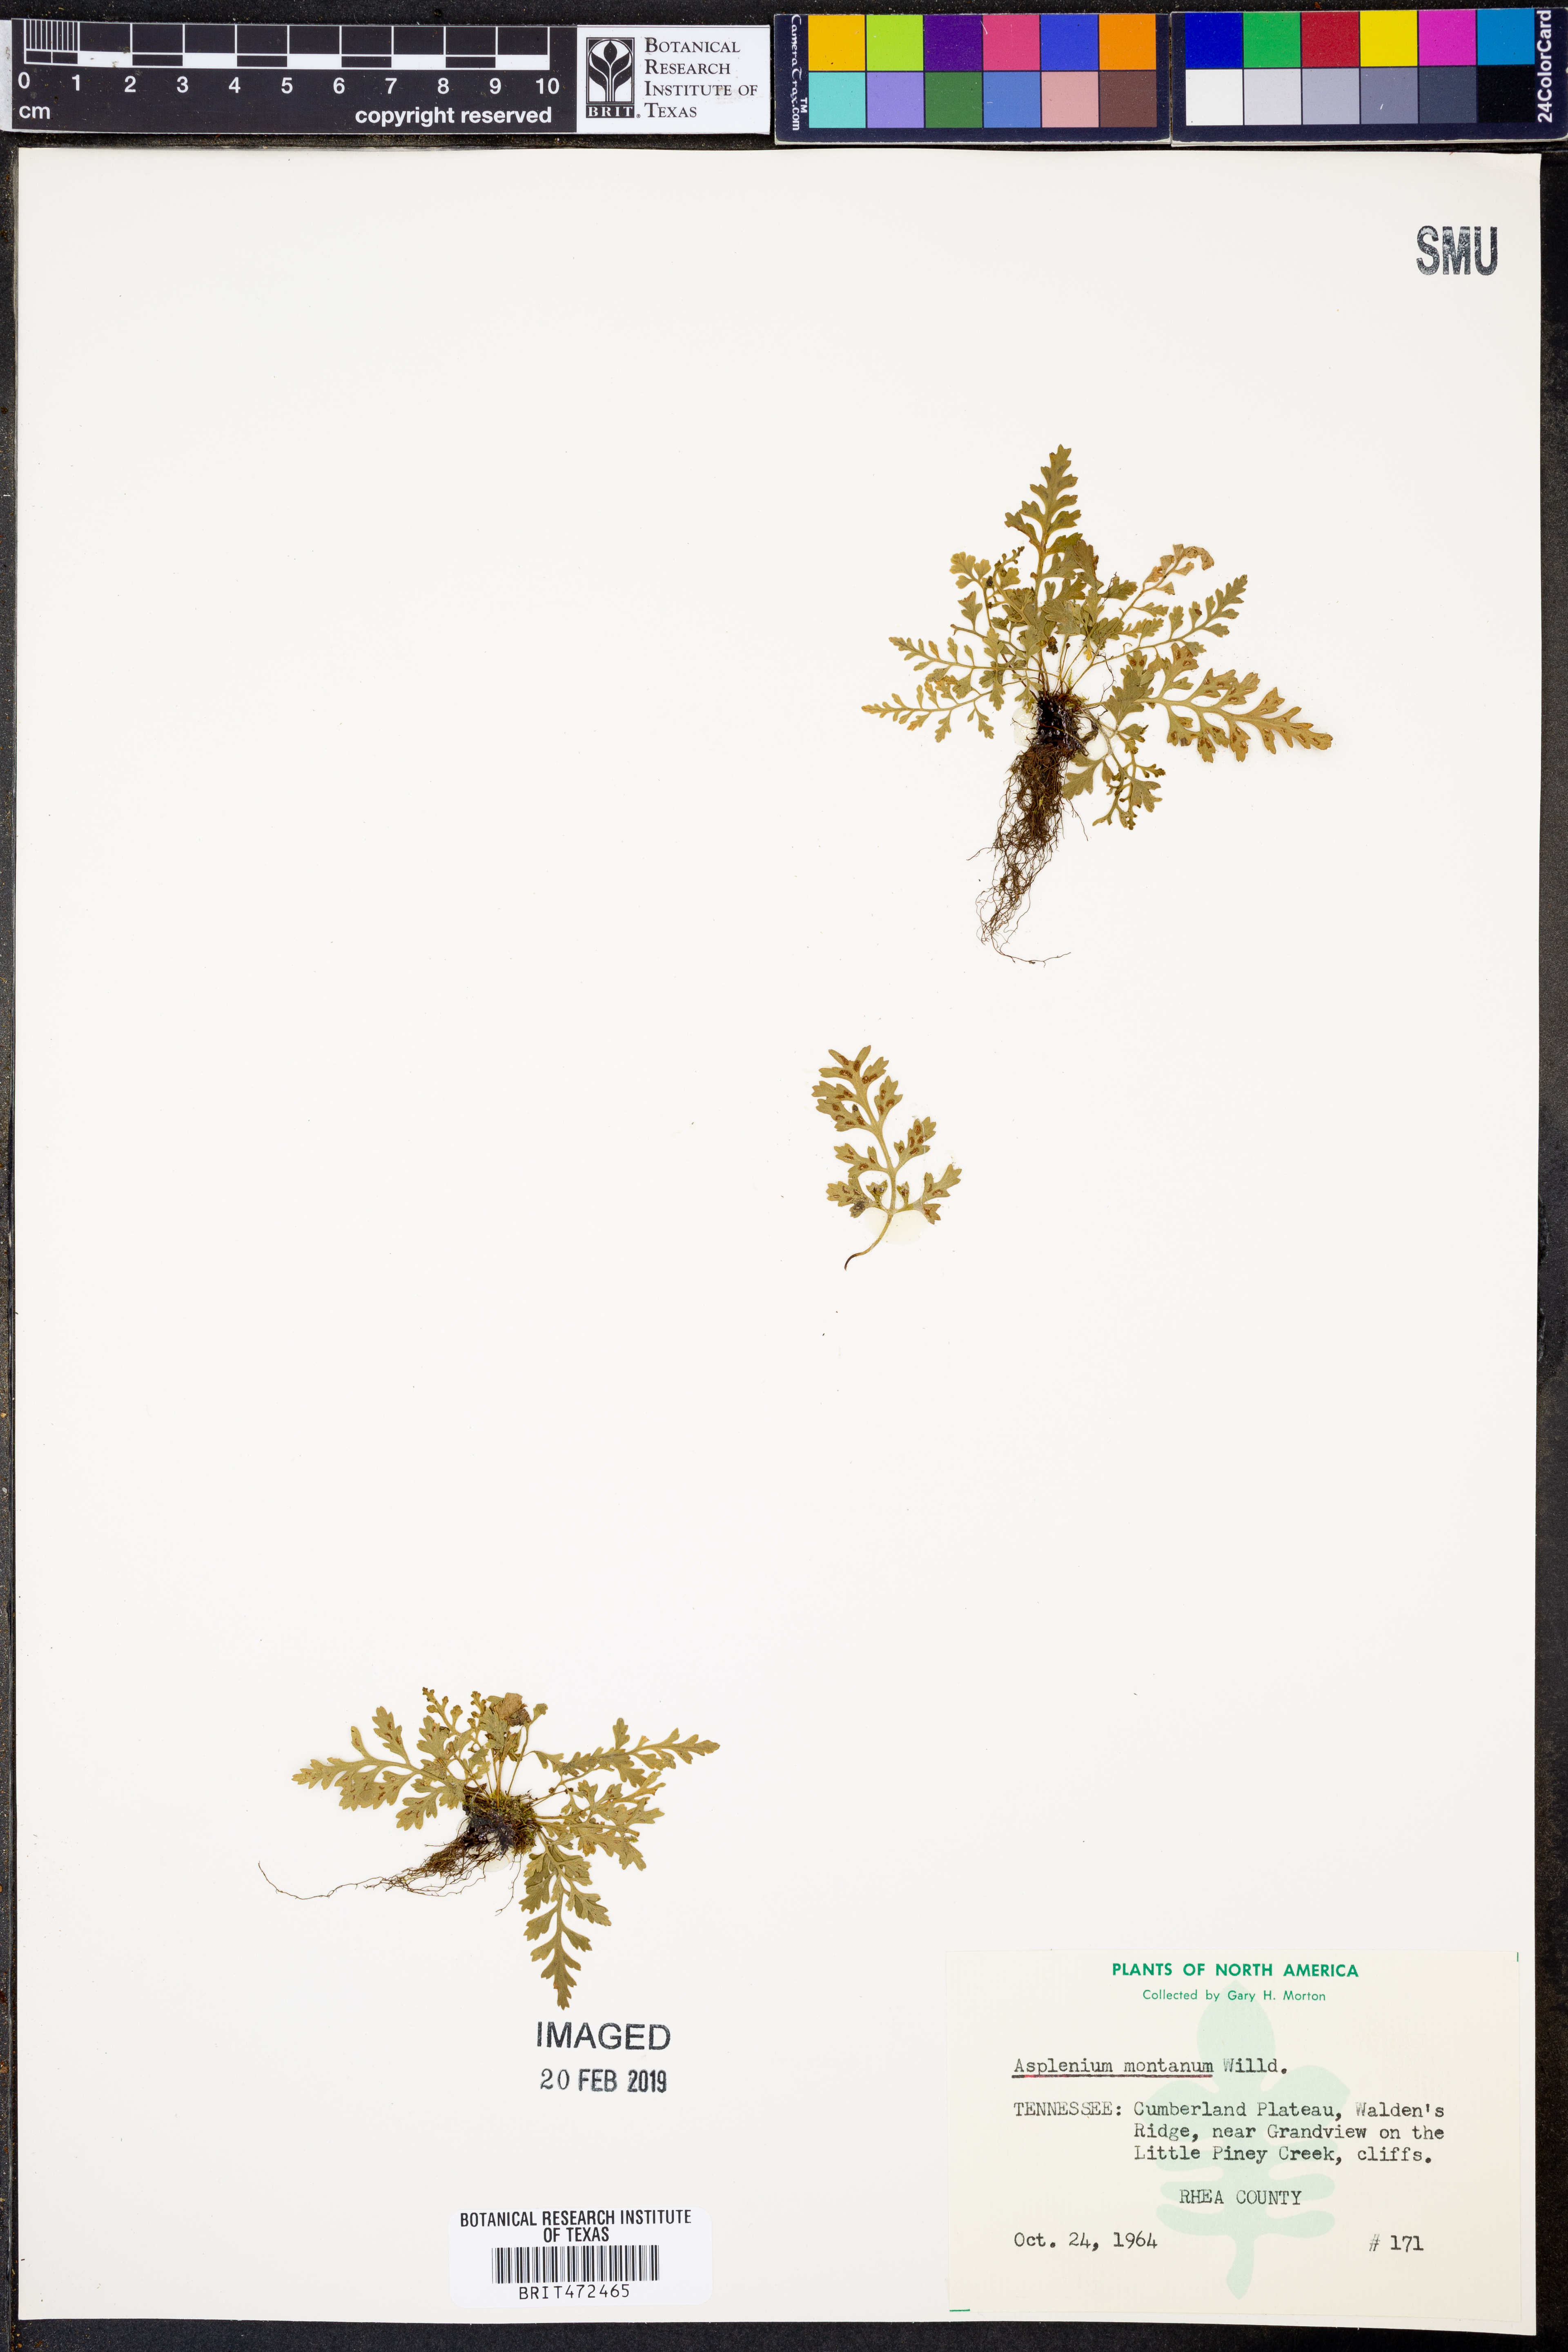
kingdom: Plantae
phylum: Tracheophyta
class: Polypodiopsida
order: Polypodiales
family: Aspleniaceae
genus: Asplenium
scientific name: Asplenium montanum
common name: Mountain spleenwort
